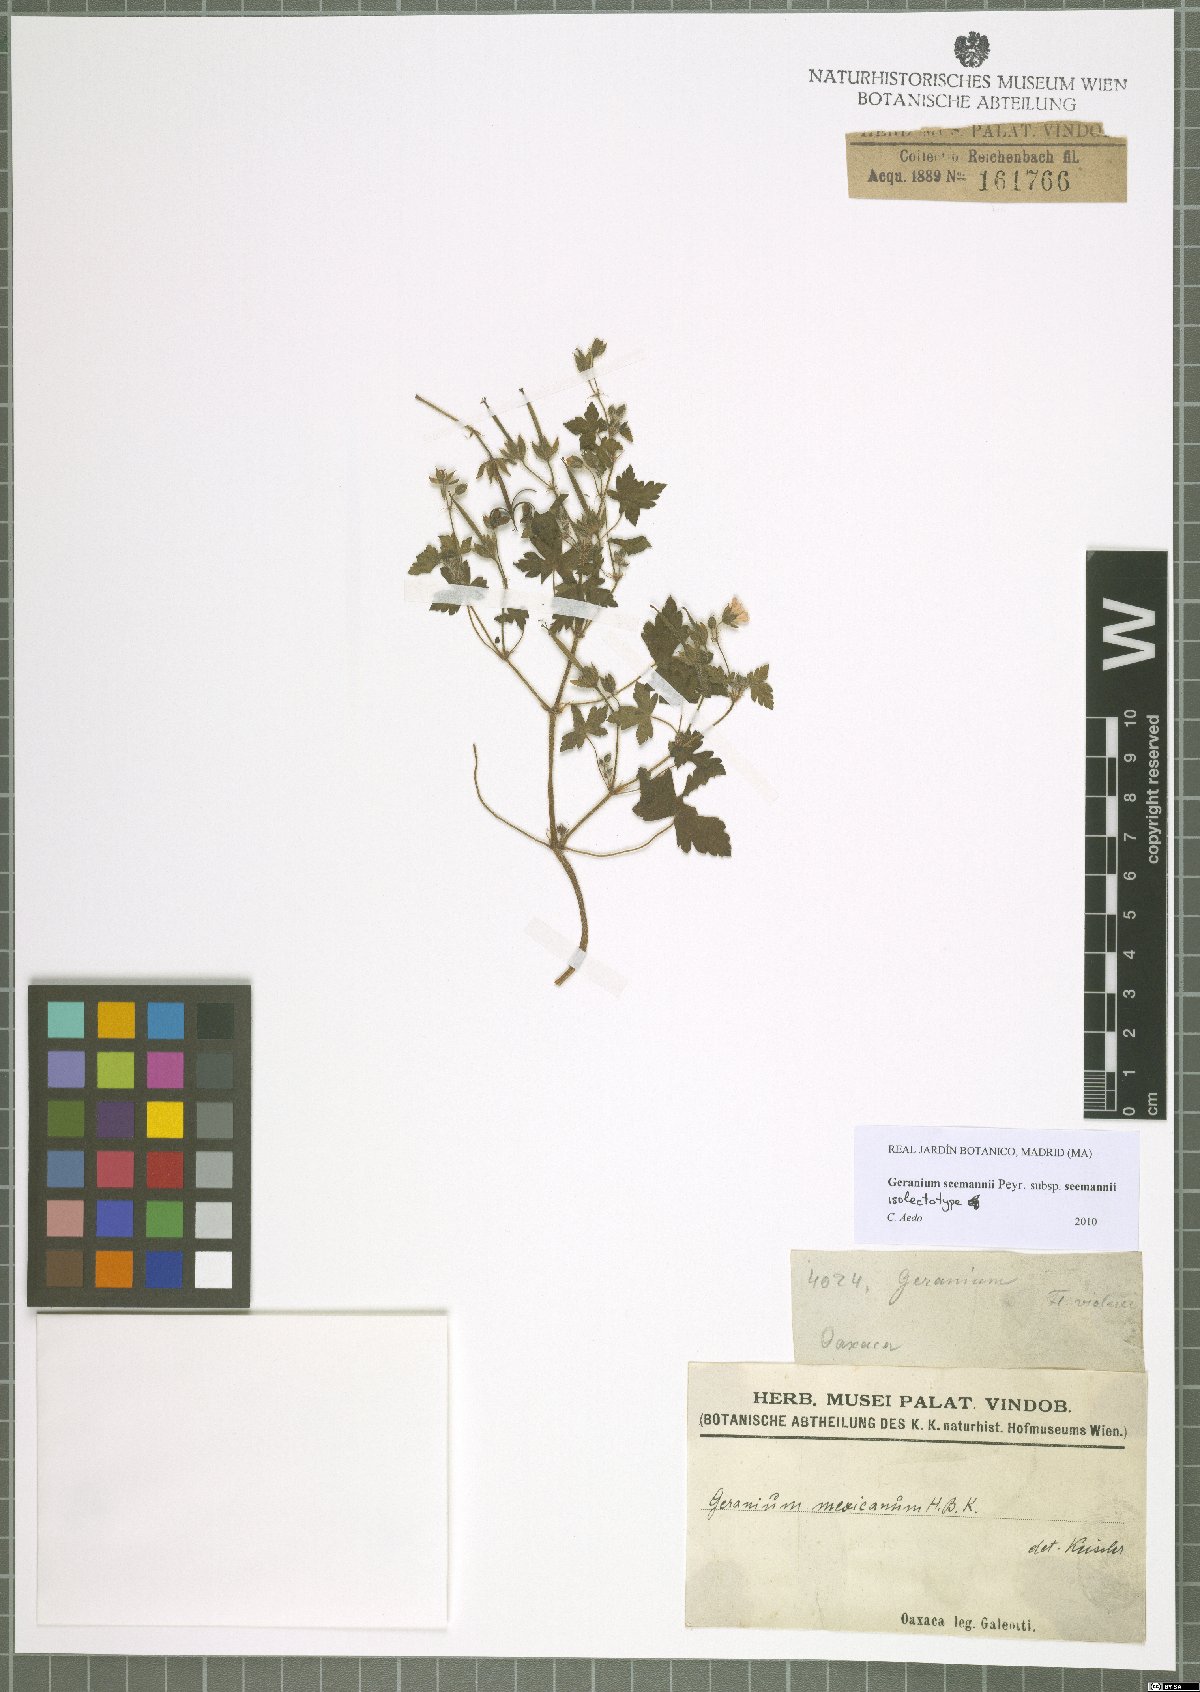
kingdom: Plantae
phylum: Tracheophyta
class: Magnoliopsida
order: Geraniales
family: Geraniaceae
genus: Geranium
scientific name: Geranium seemannii
